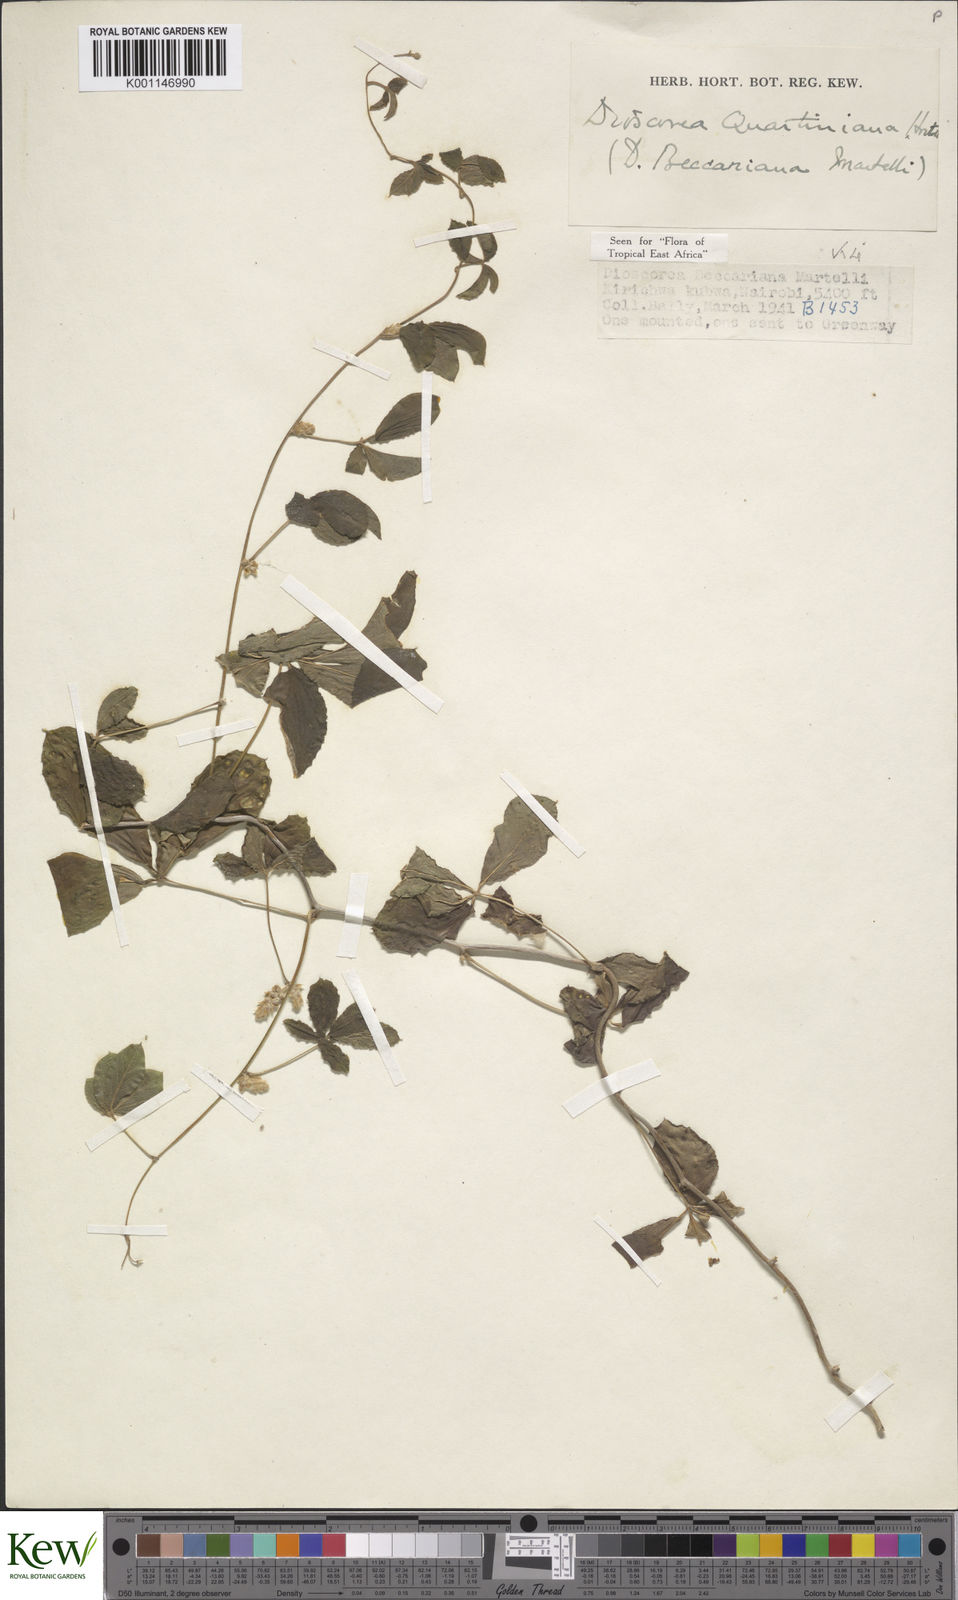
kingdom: Plantae
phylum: Tracheophyta
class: Liliopsida
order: Dioscoreales
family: Dioscoreaceae
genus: Dioscorea
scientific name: Dioscorea quartiniana
